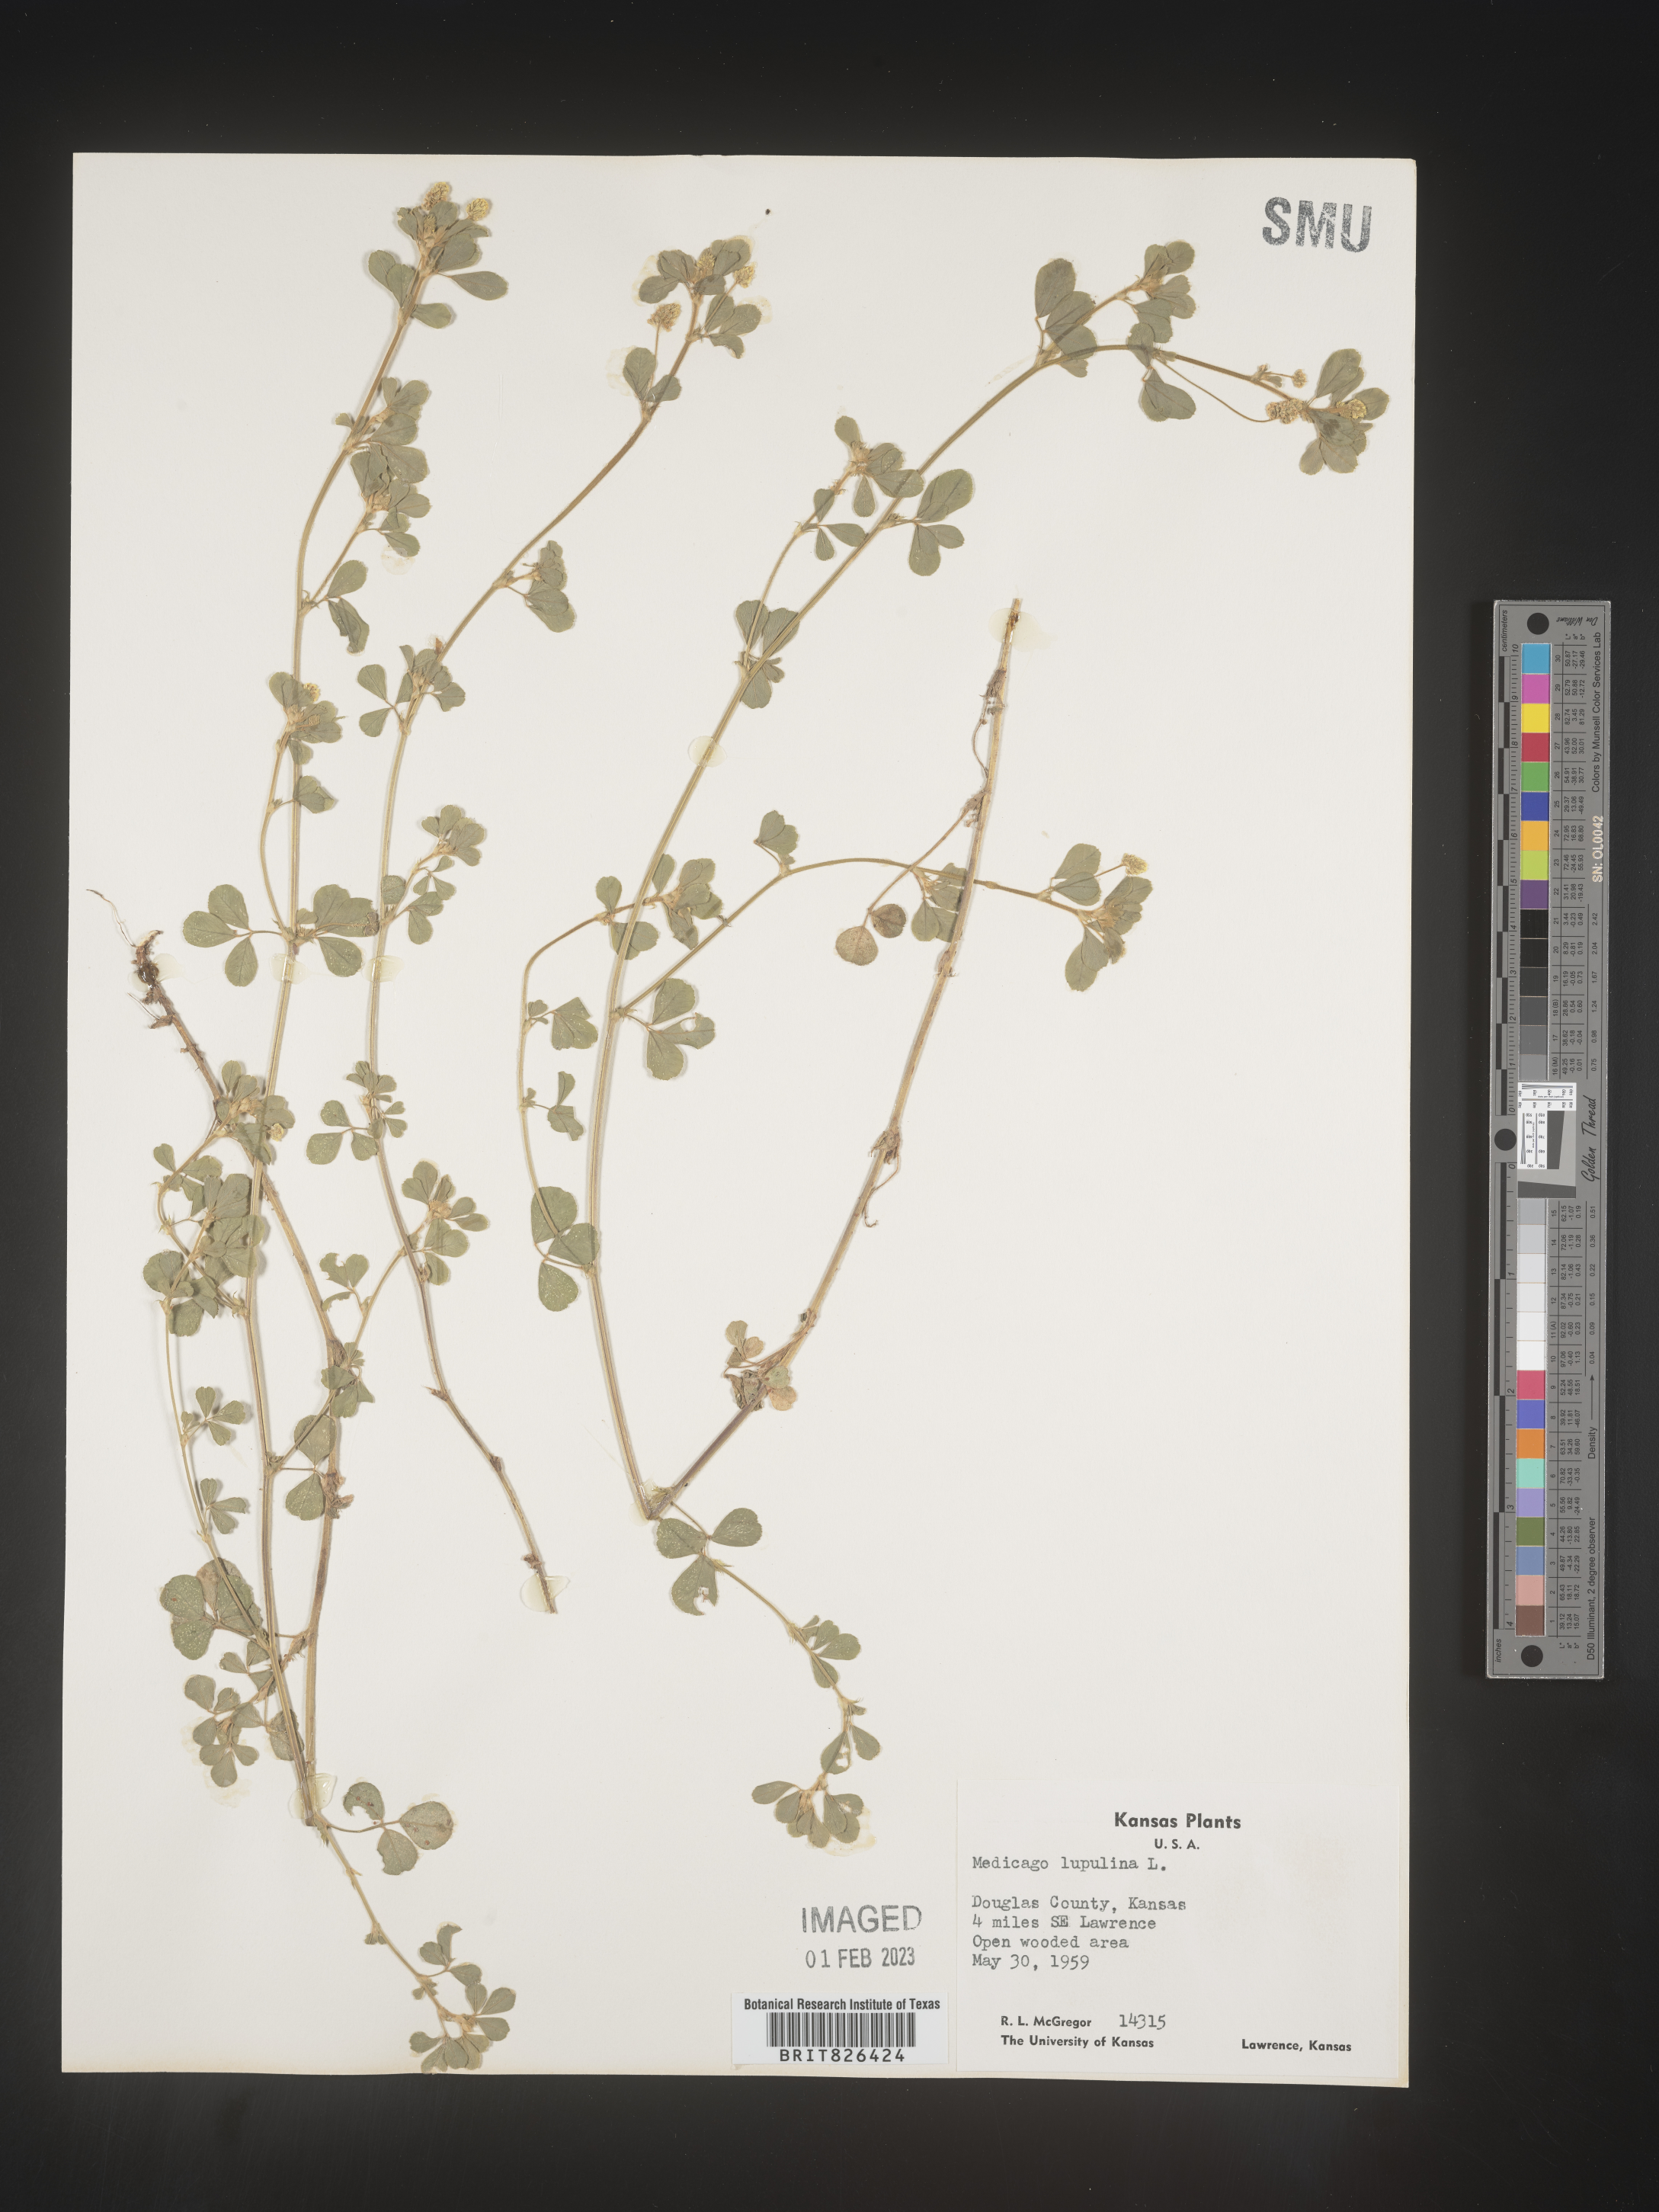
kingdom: Plantae
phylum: Tracheophyta
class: Magnoliopsida
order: Fabales
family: Fabaceae
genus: Medicago
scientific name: Medicago lupulina
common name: Black medick
